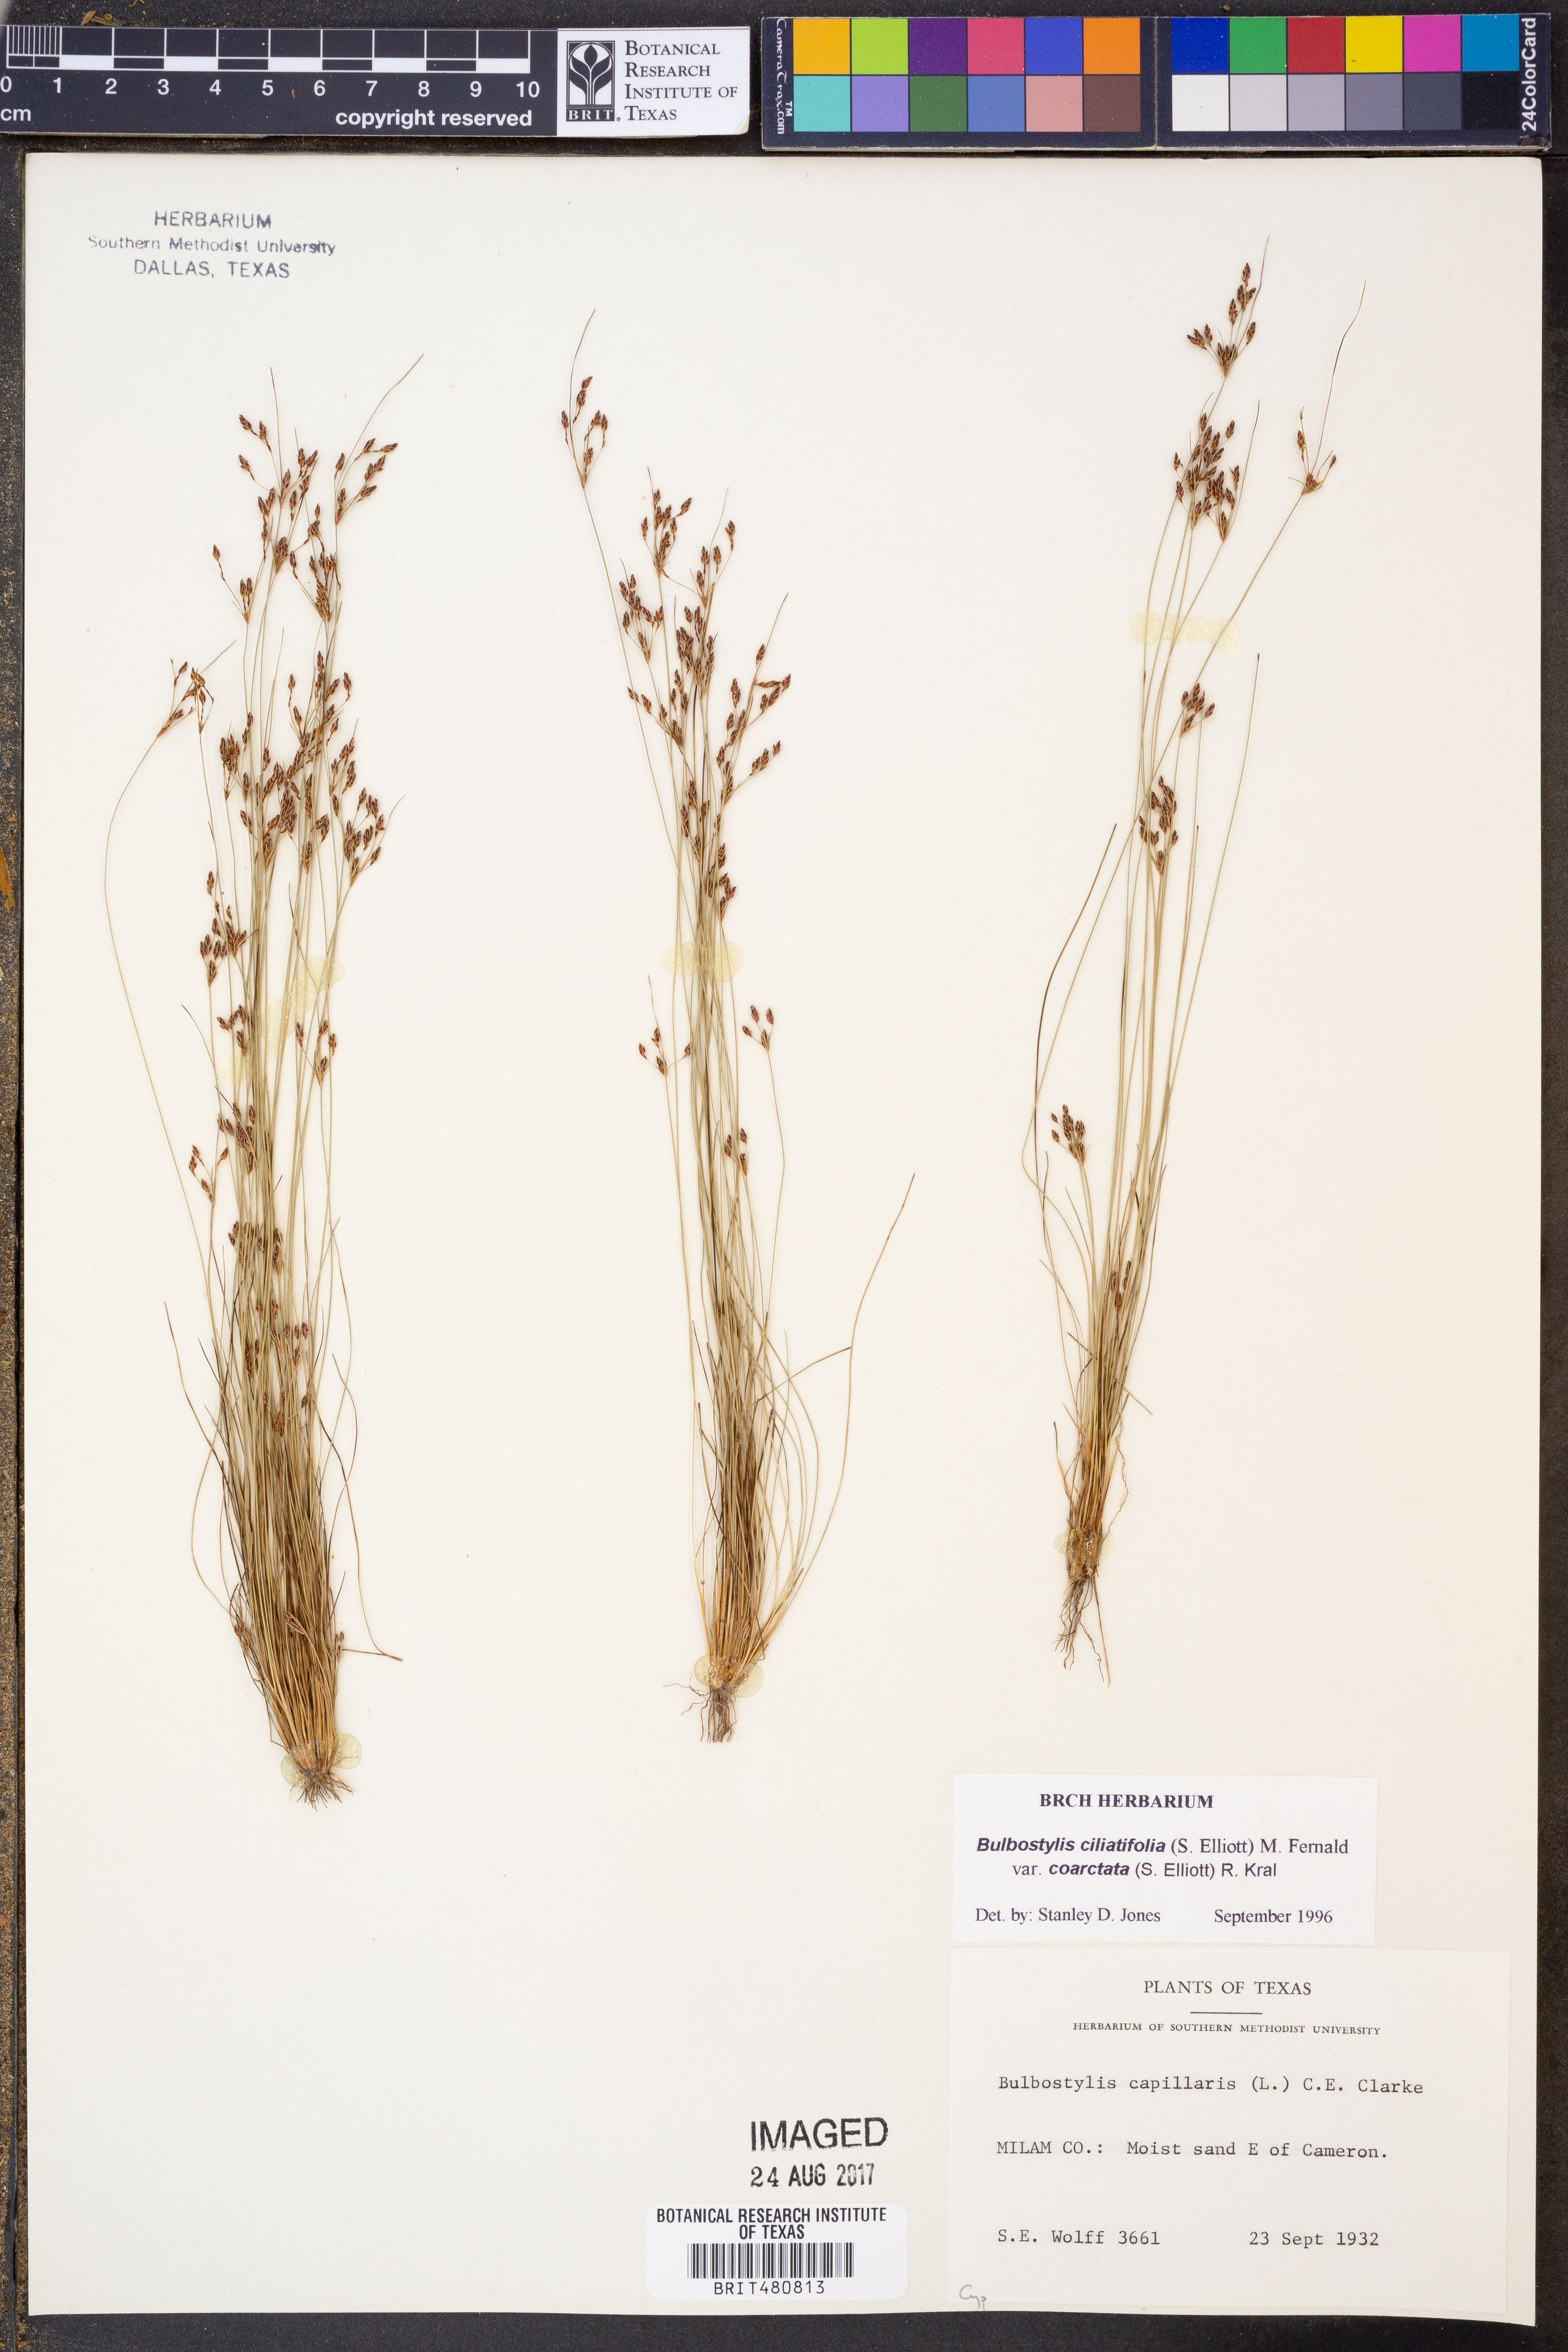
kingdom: Plantae
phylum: Tracheophyta
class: Liliopsida
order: Poales
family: Cyperaceae
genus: Bulbostylis
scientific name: Bulbostylis ciliatifolia
